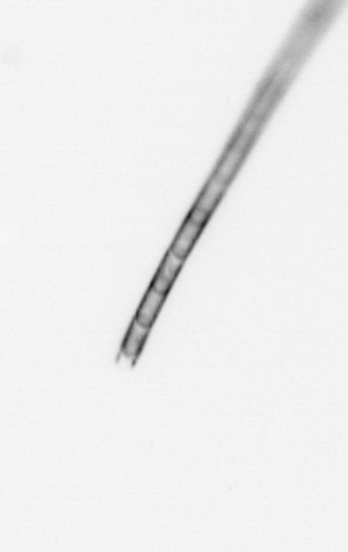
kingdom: Chromista
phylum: Ochrophyta
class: Bacillariophyceae
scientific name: Bacillariophyceae
